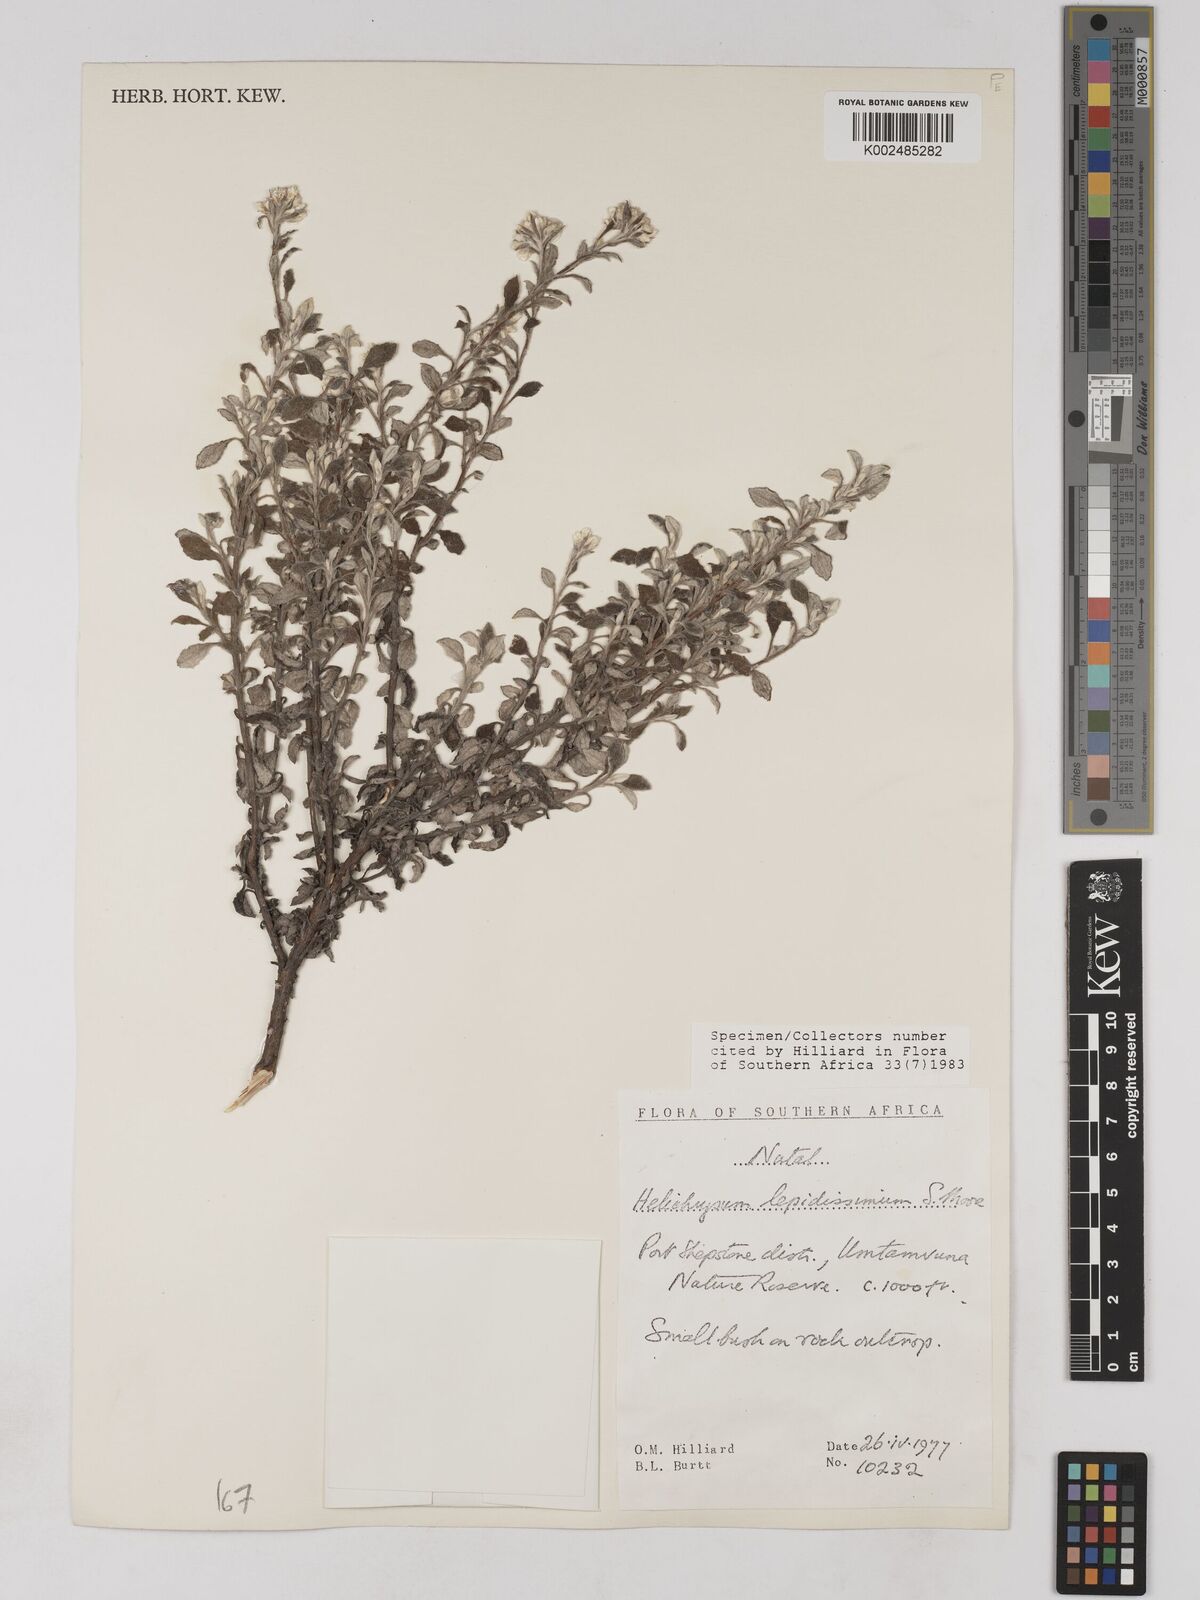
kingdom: Plantae
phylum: Tracheophyta
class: Magnoliopsida
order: Asterales
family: Asteraceae
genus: Helichrysum
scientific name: Helichrysum lepidissimum
